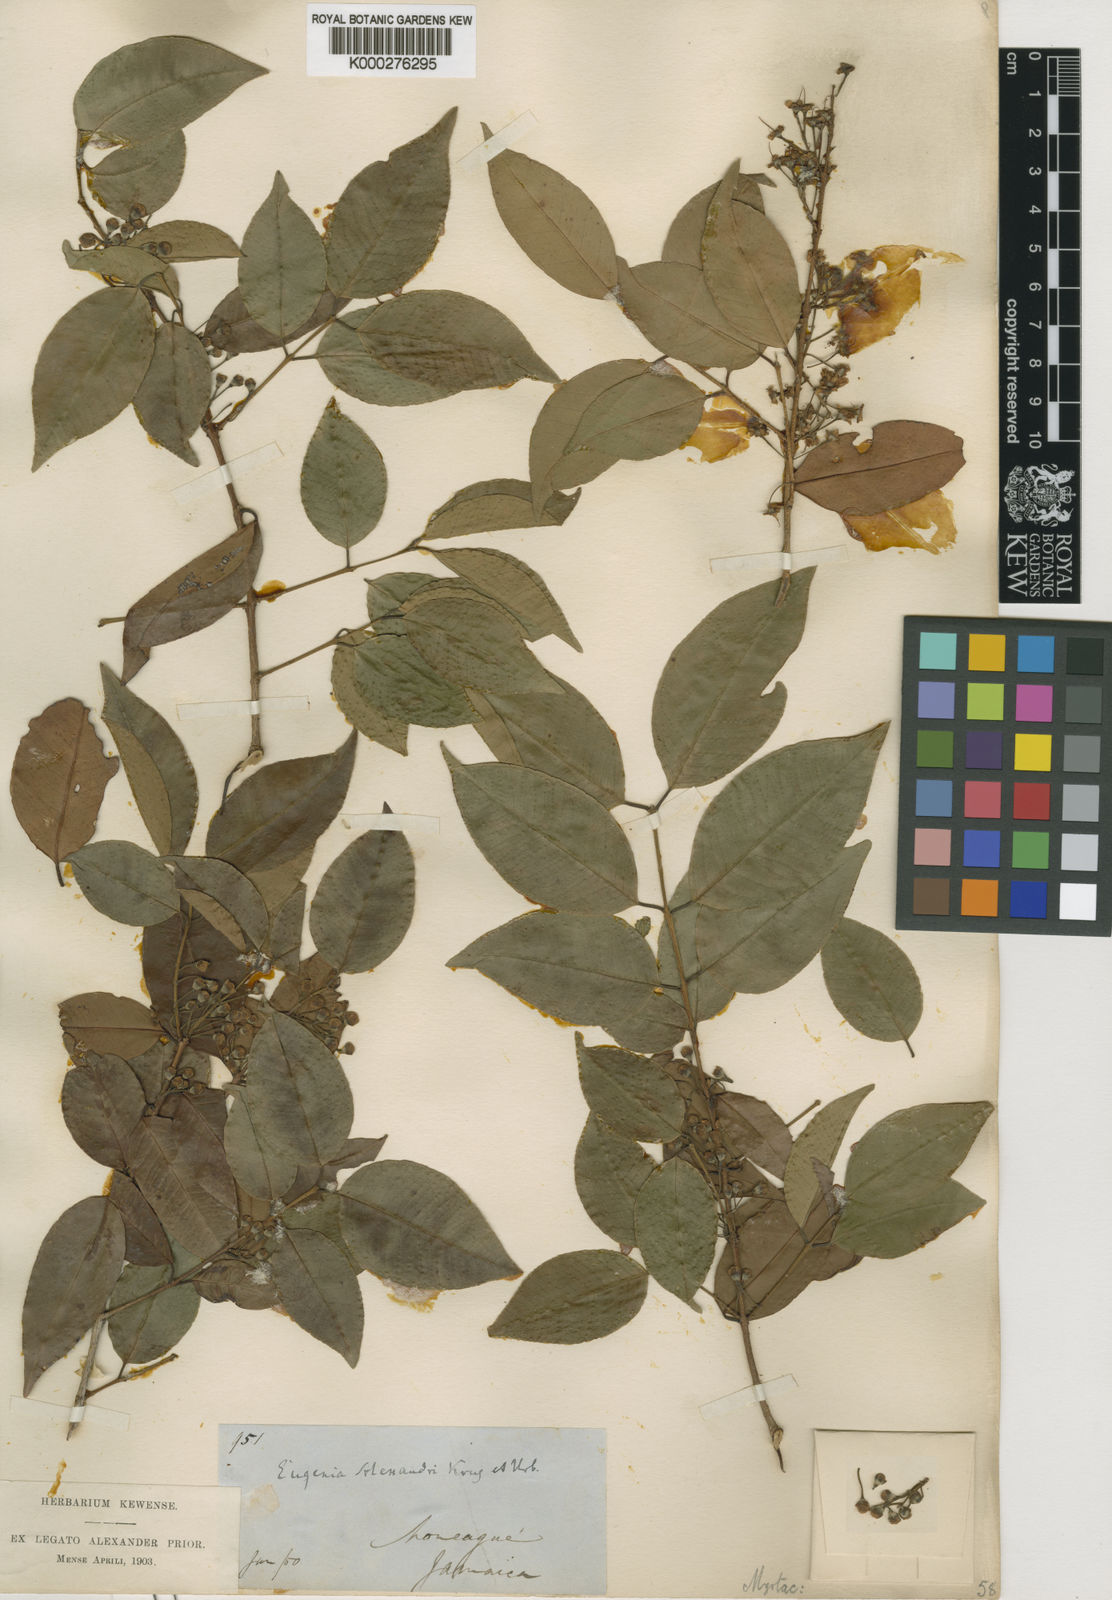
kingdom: Plantae
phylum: Tracheophyta
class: Magnoliopsida
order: Myrtales
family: Myrtaceae
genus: Eugenia
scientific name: Eugenia alexandri
